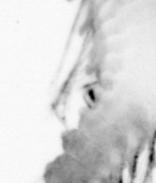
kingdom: Animalia
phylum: Annelida
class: Polychaeta
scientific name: Polychaeta
